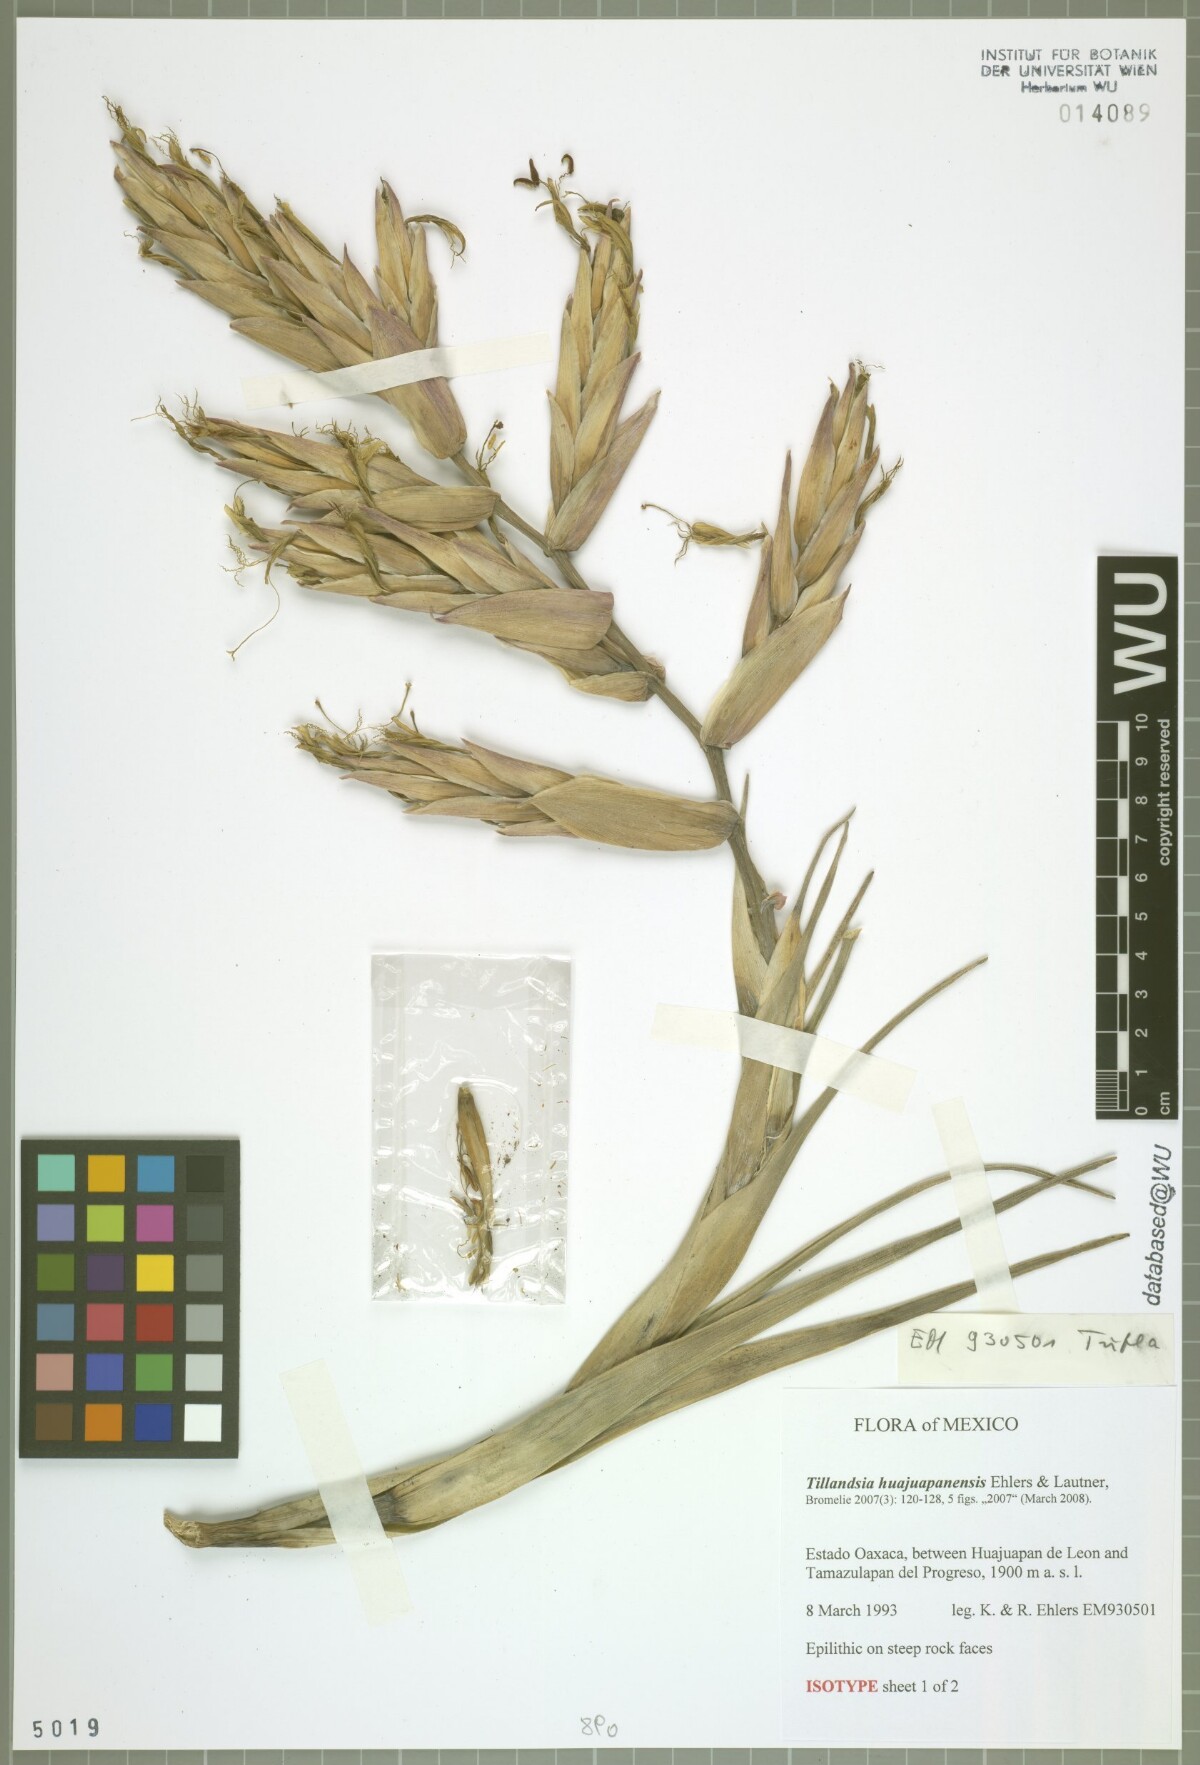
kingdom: Plantae
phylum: Tracheophyta
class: Liliopsida
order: Poales
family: Bromeliaceae
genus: Tillandsia
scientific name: Tillandsia huajuapanensis
